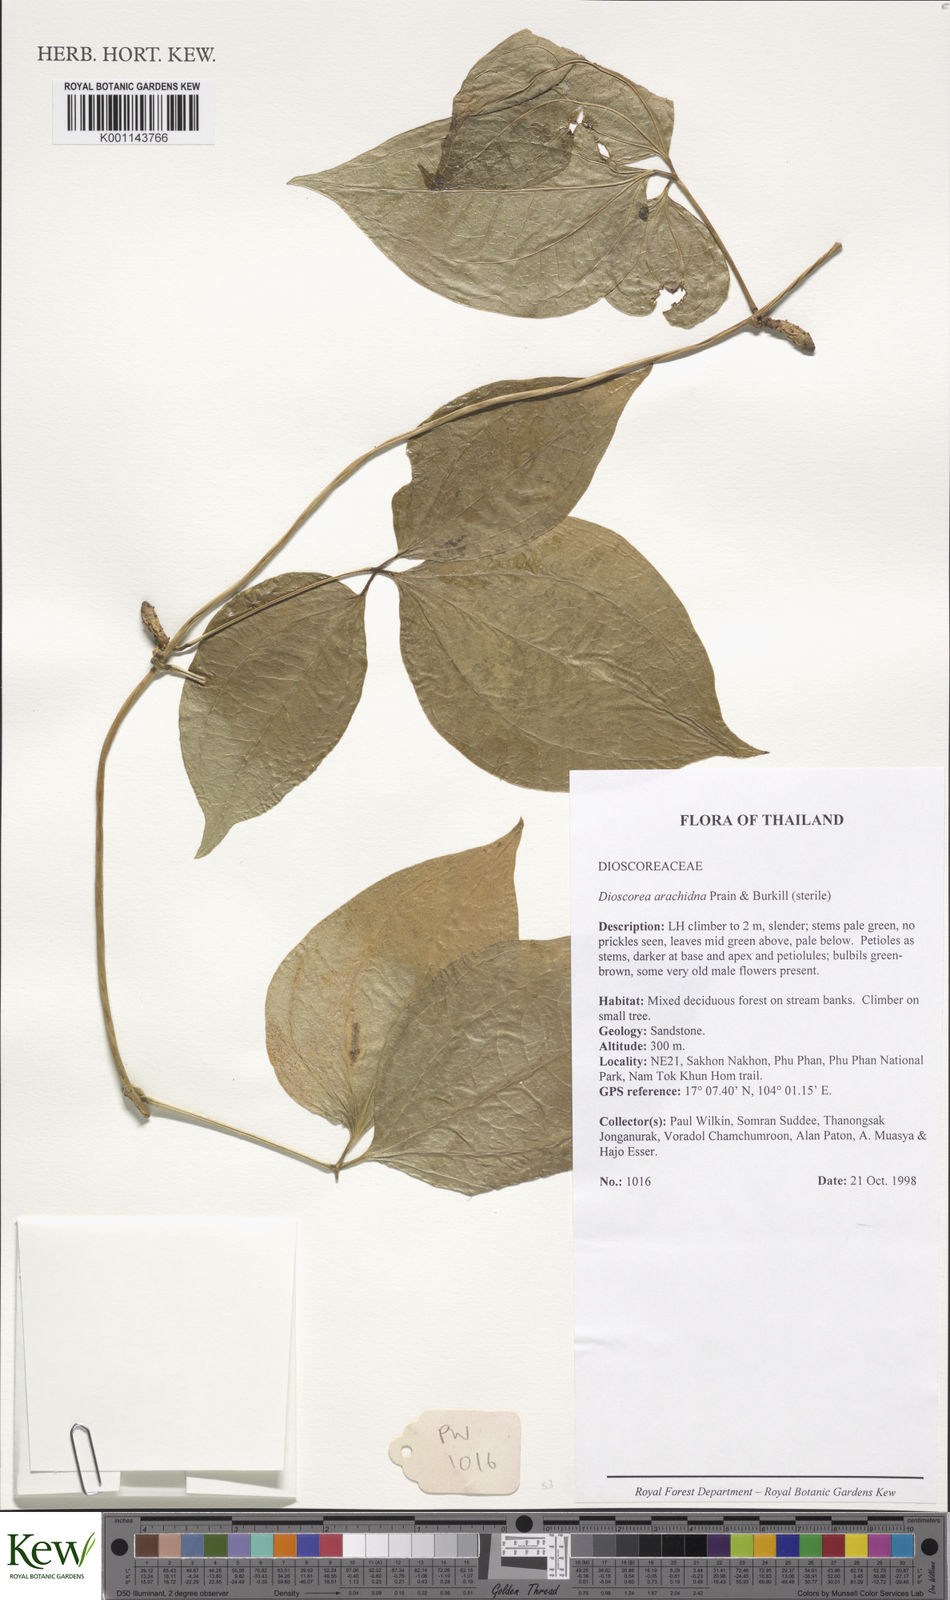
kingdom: Plantae
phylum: Tracheophyta
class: Liliopsida
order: Dioscoreales
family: Dioscoreaceae
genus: Dioscorea
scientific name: Dioscorea arachidna
